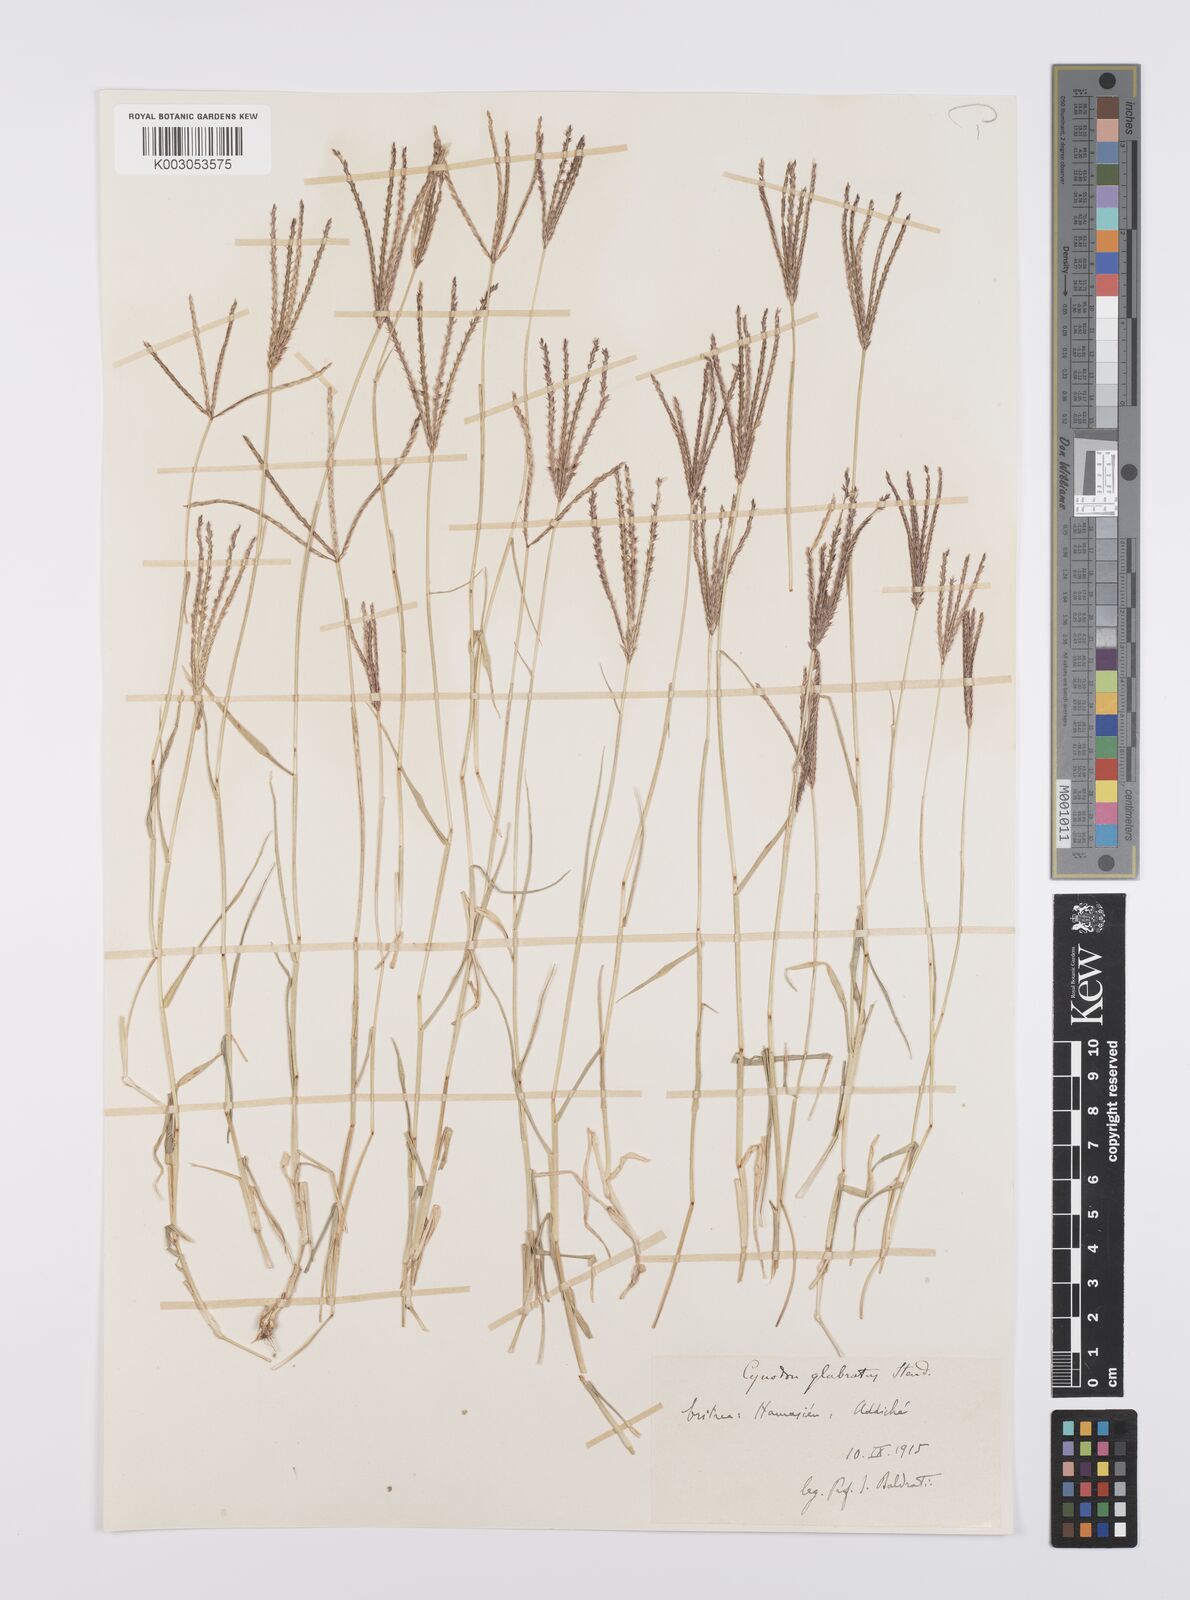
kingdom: Plantae
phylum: Tracheophyta
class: Liliopsida
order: Poales
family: Poaceae
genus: Cynodon
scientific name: Cynodon dactylon
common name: Bermuda grass
